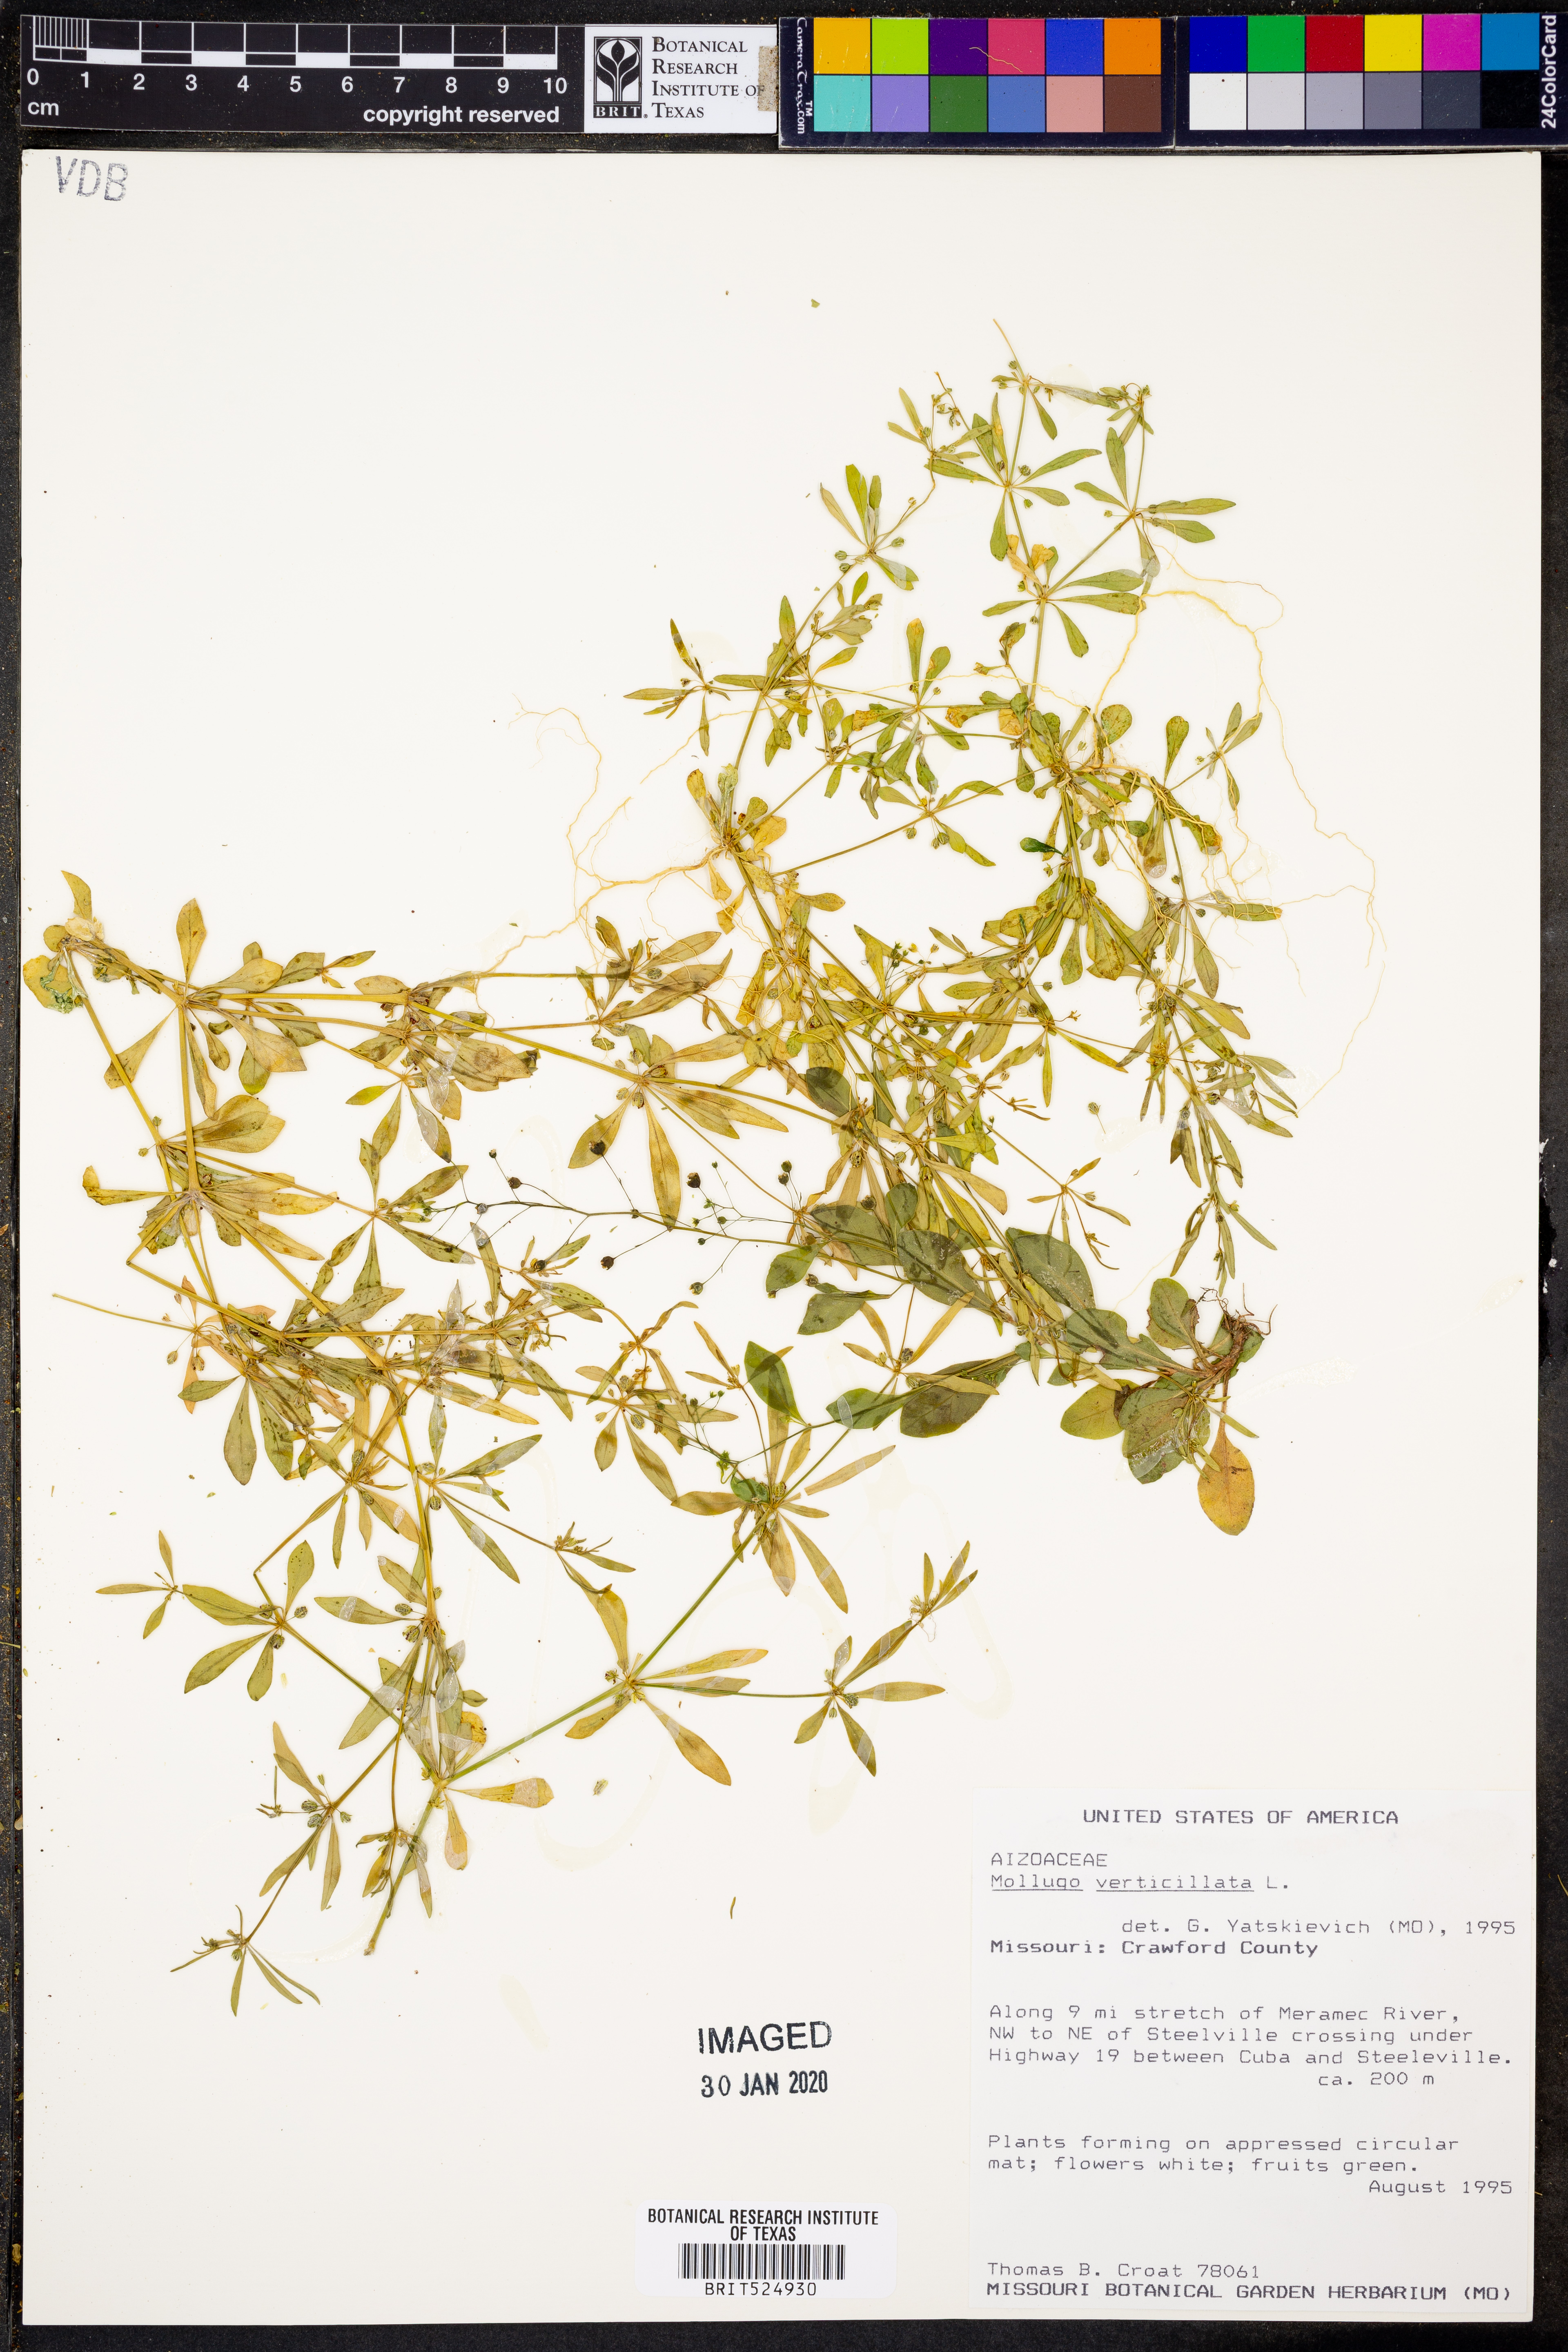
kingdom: Plantae
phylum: Tracheophyta
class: Magnoliopsida
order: Caryophyllales
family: Molluginaceae
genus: Mollugo
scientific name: Mollugo verticillata
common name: Green carpetweed
